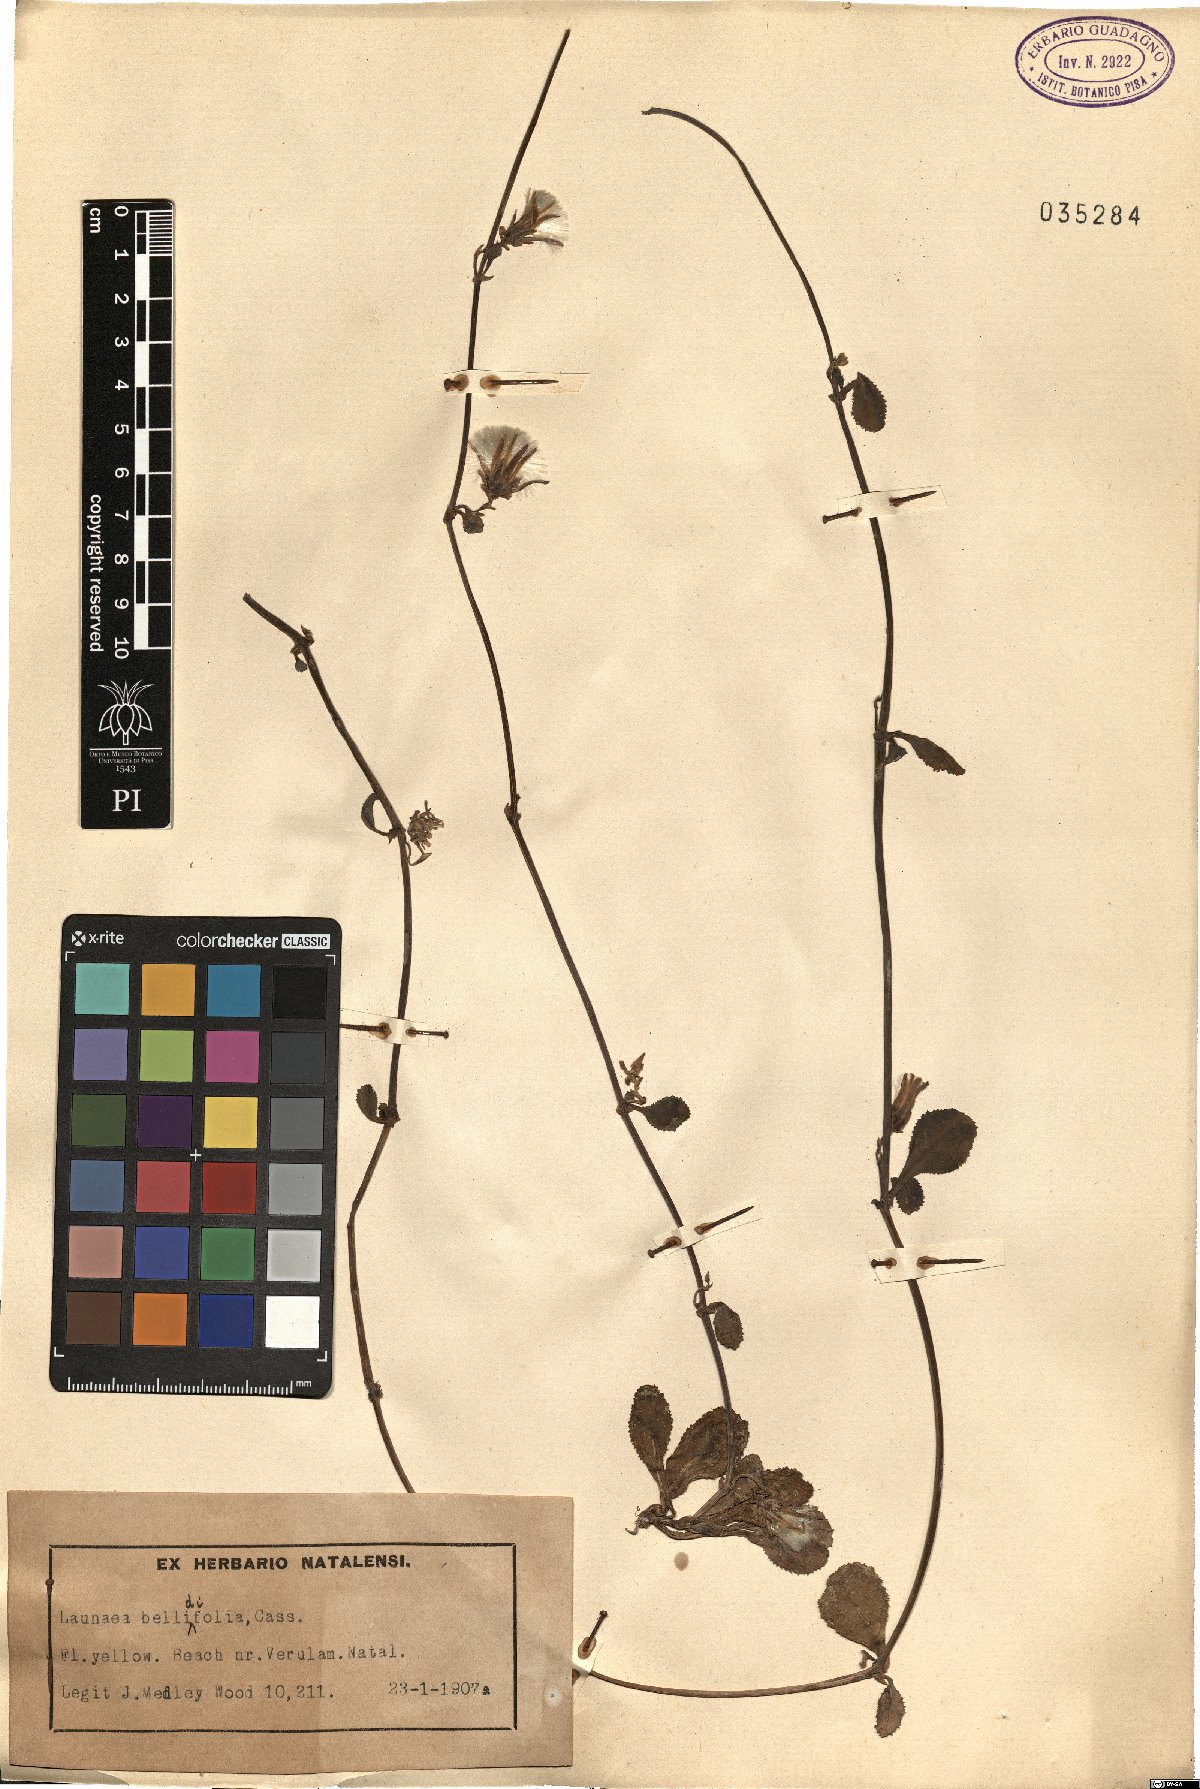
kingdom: Plantae
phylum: Tracheophyta
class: Magnoliopsida
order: Asterales
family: Asteraceae
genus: Launaea
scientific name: Launaea sarmentosa
